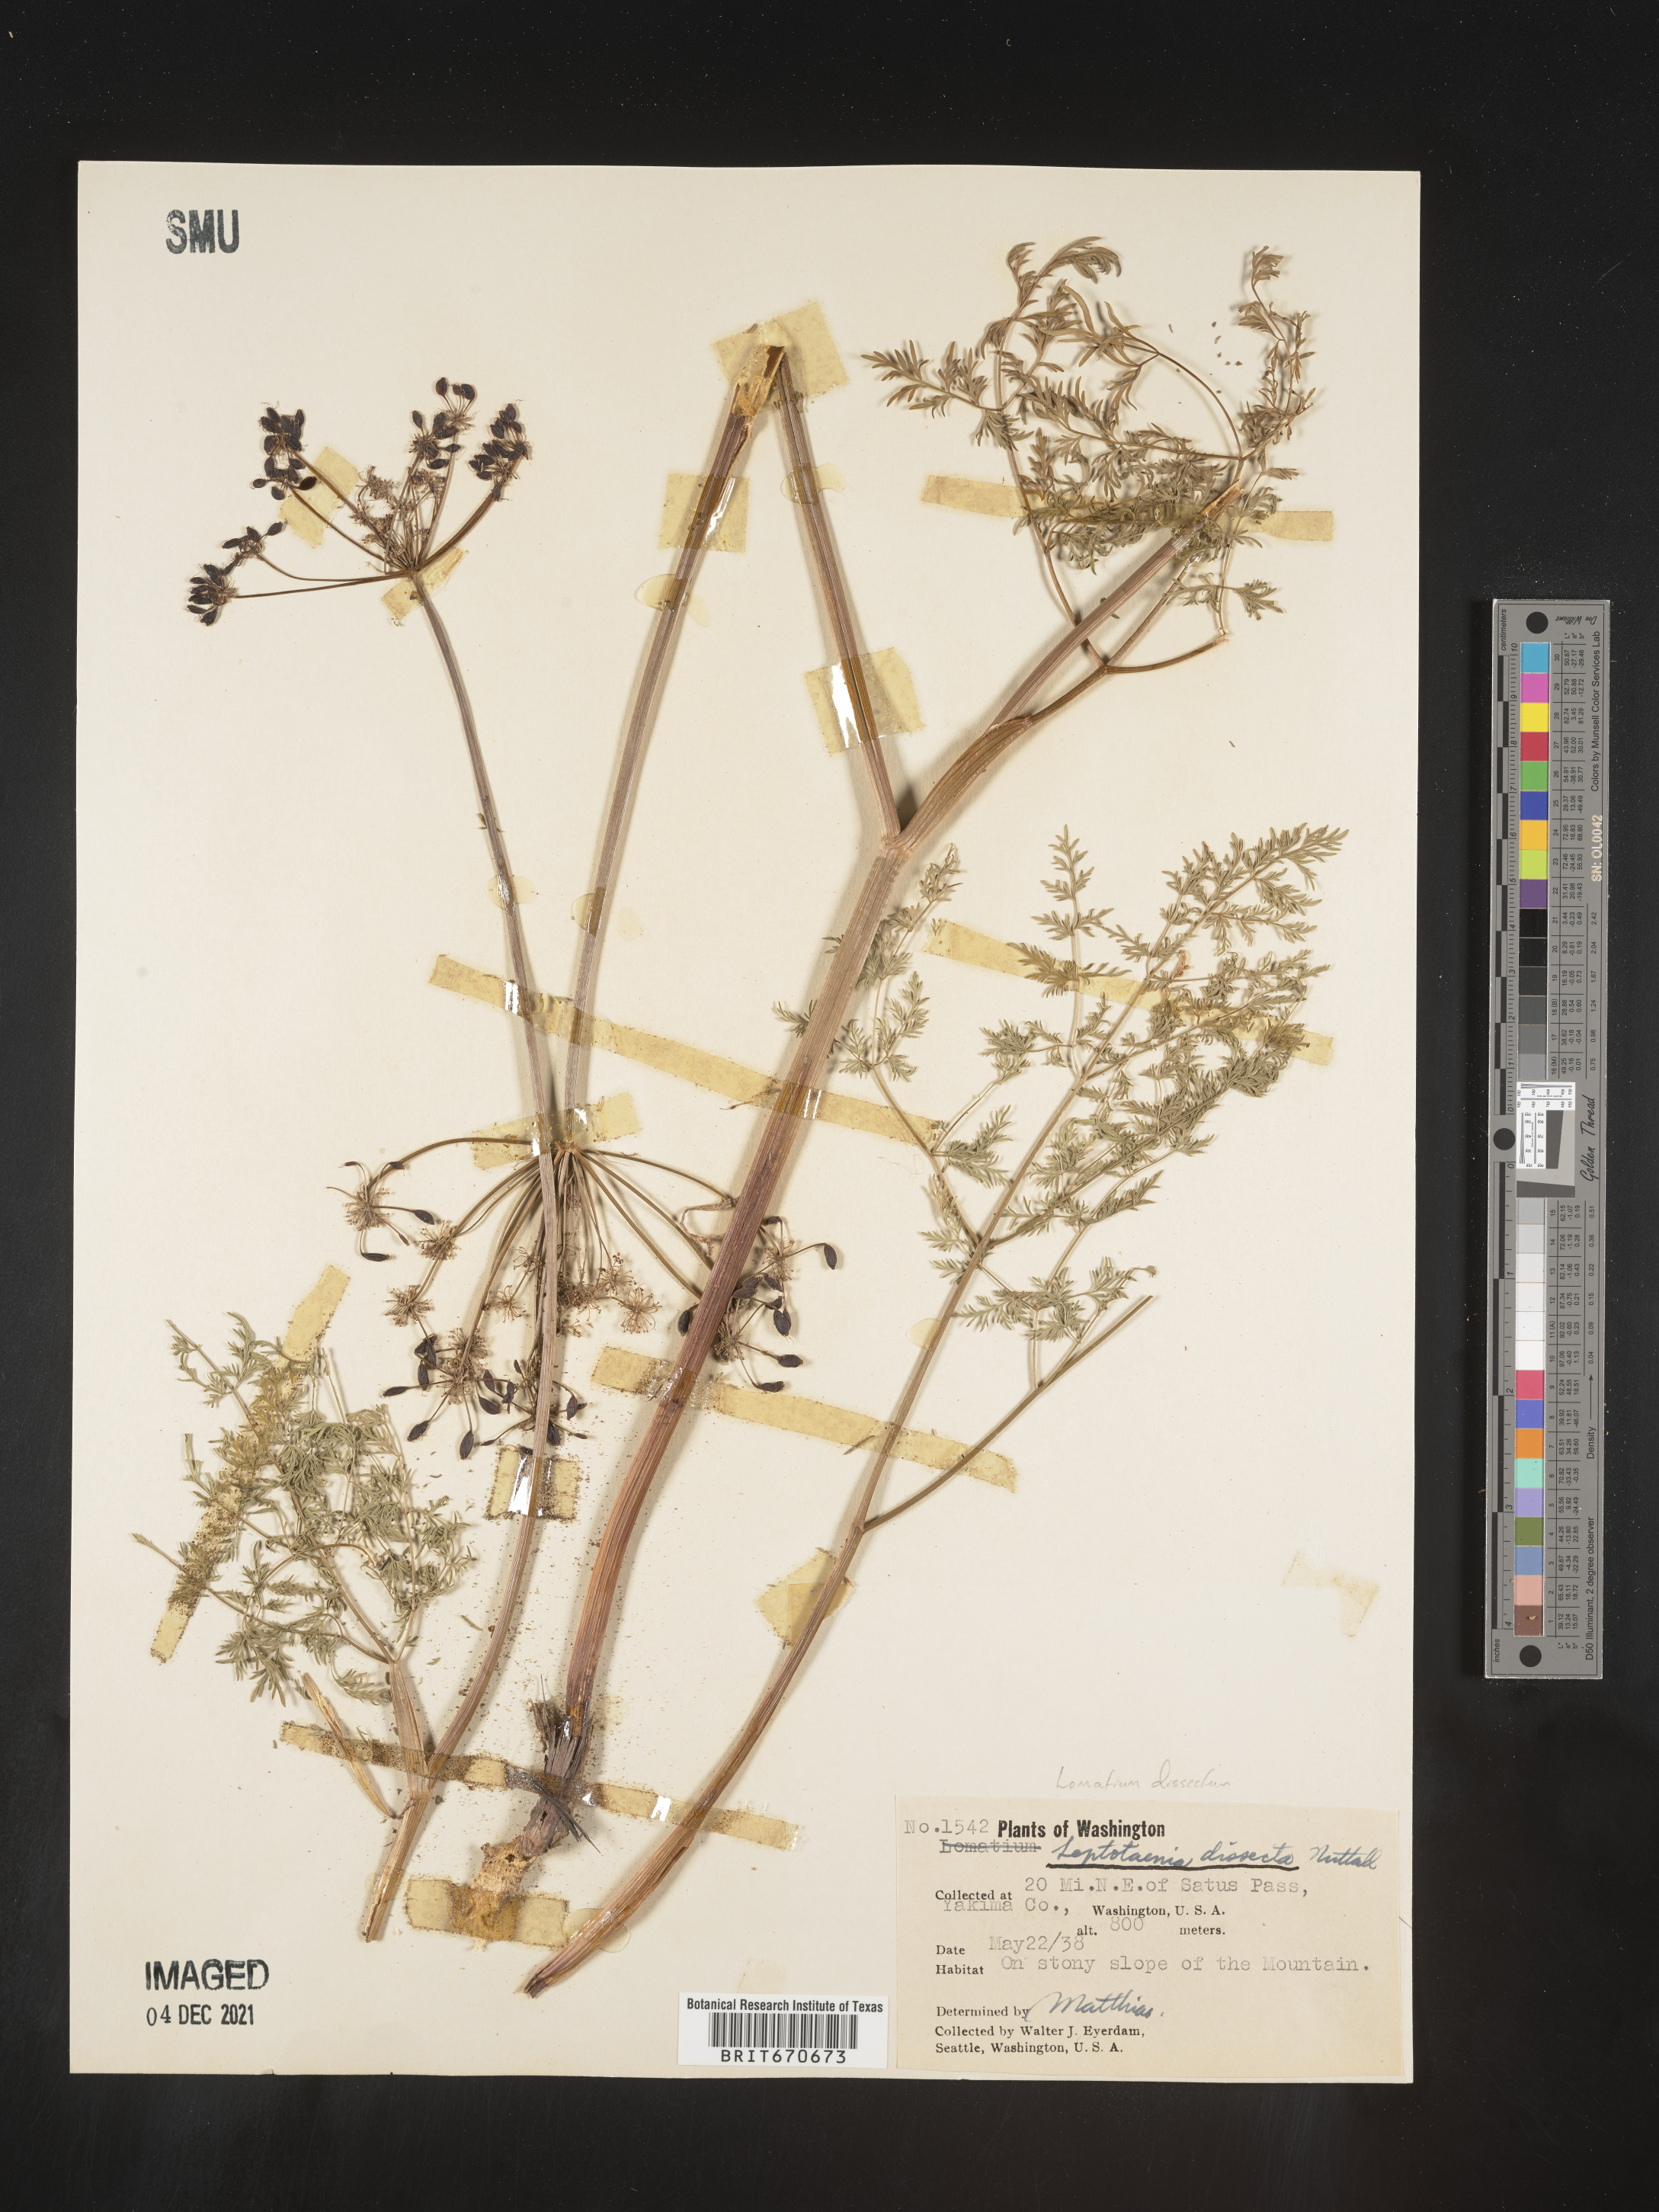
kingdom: Plantae
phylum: Tracheophyta
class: Magnoliopsida
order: Apiales
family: Apiaceae
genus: Lomatium
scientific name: Lomatium dissectum
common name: Lomatium
